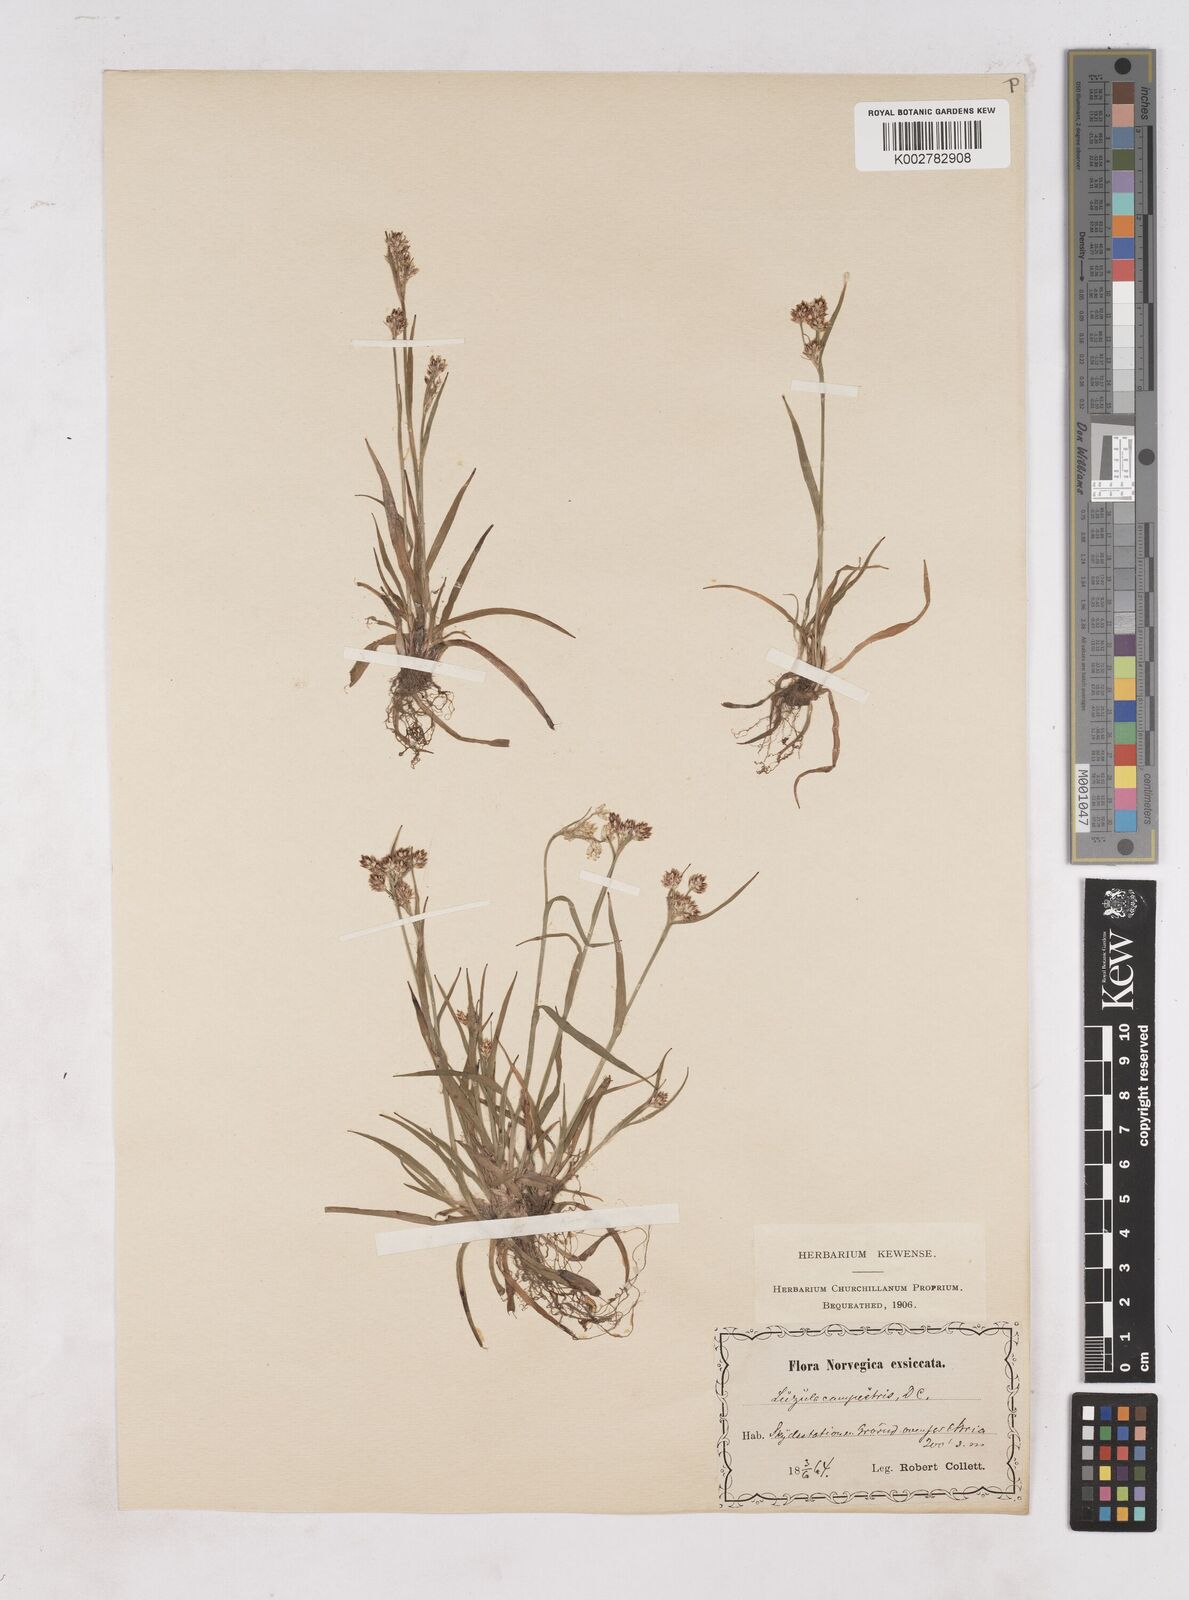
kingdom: Plantae
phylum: Tracheophyta
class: Liliopsida
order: Poales
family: Juncaceae
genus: Luzula
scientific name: Luzula campestris
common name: Field wood-rush
